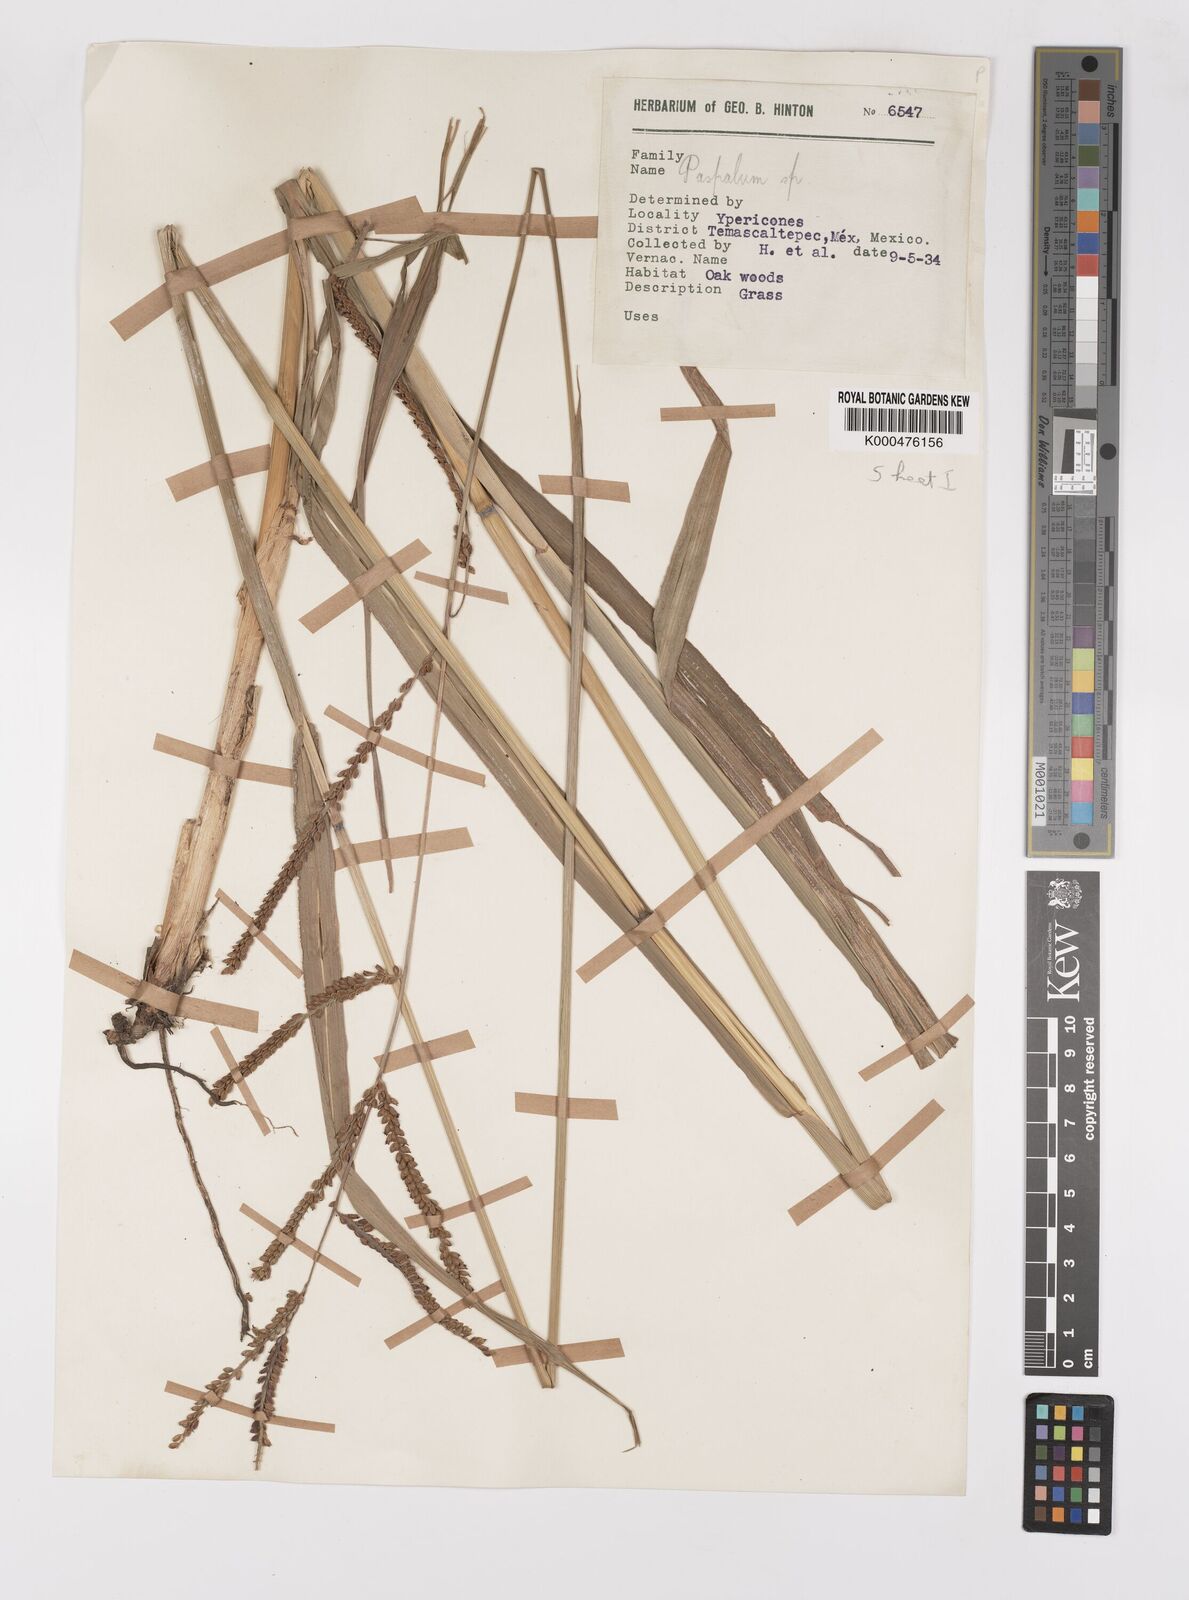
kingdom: Plantae
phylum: Tracheophyta
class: Liliopsida
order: Poales
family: Poaceae
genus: Paspalum
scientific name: Paspalum
